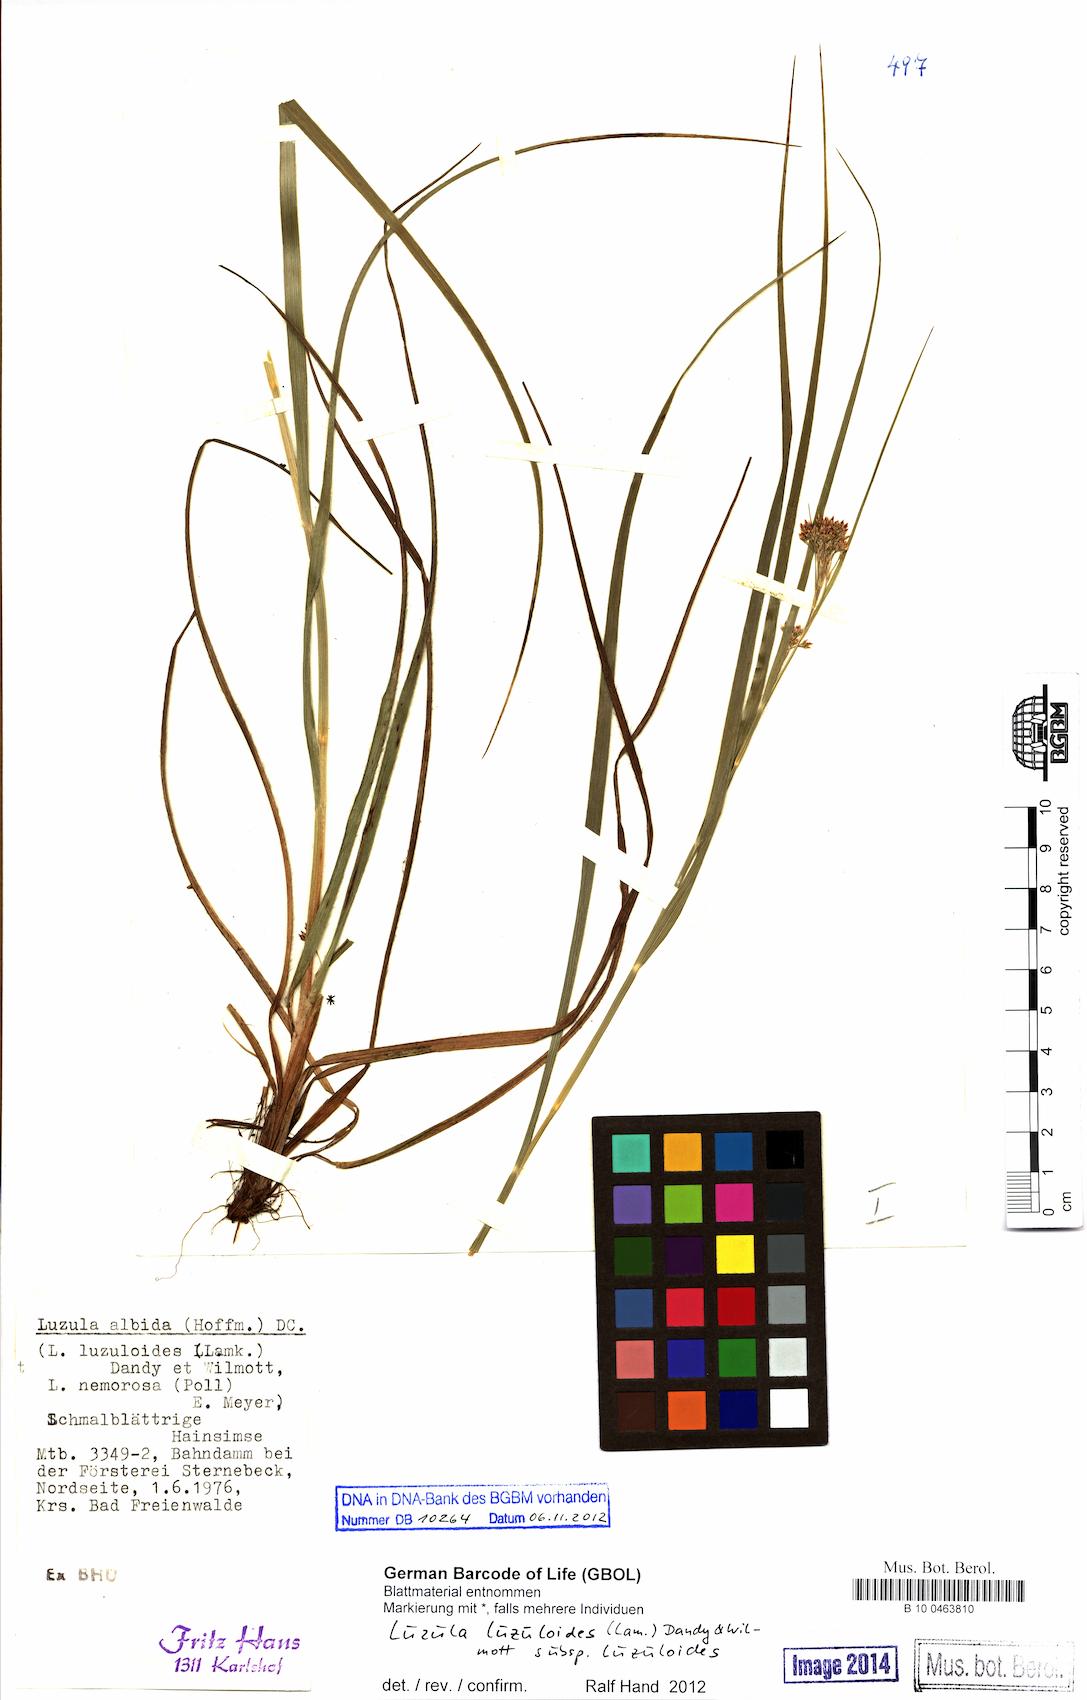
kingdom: Plantae
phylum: Tracheophyta
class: Liliopsida
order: Poales
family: Juncaceae
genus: Luzula
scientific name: Luzula luzuloides
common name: White wood-rush
